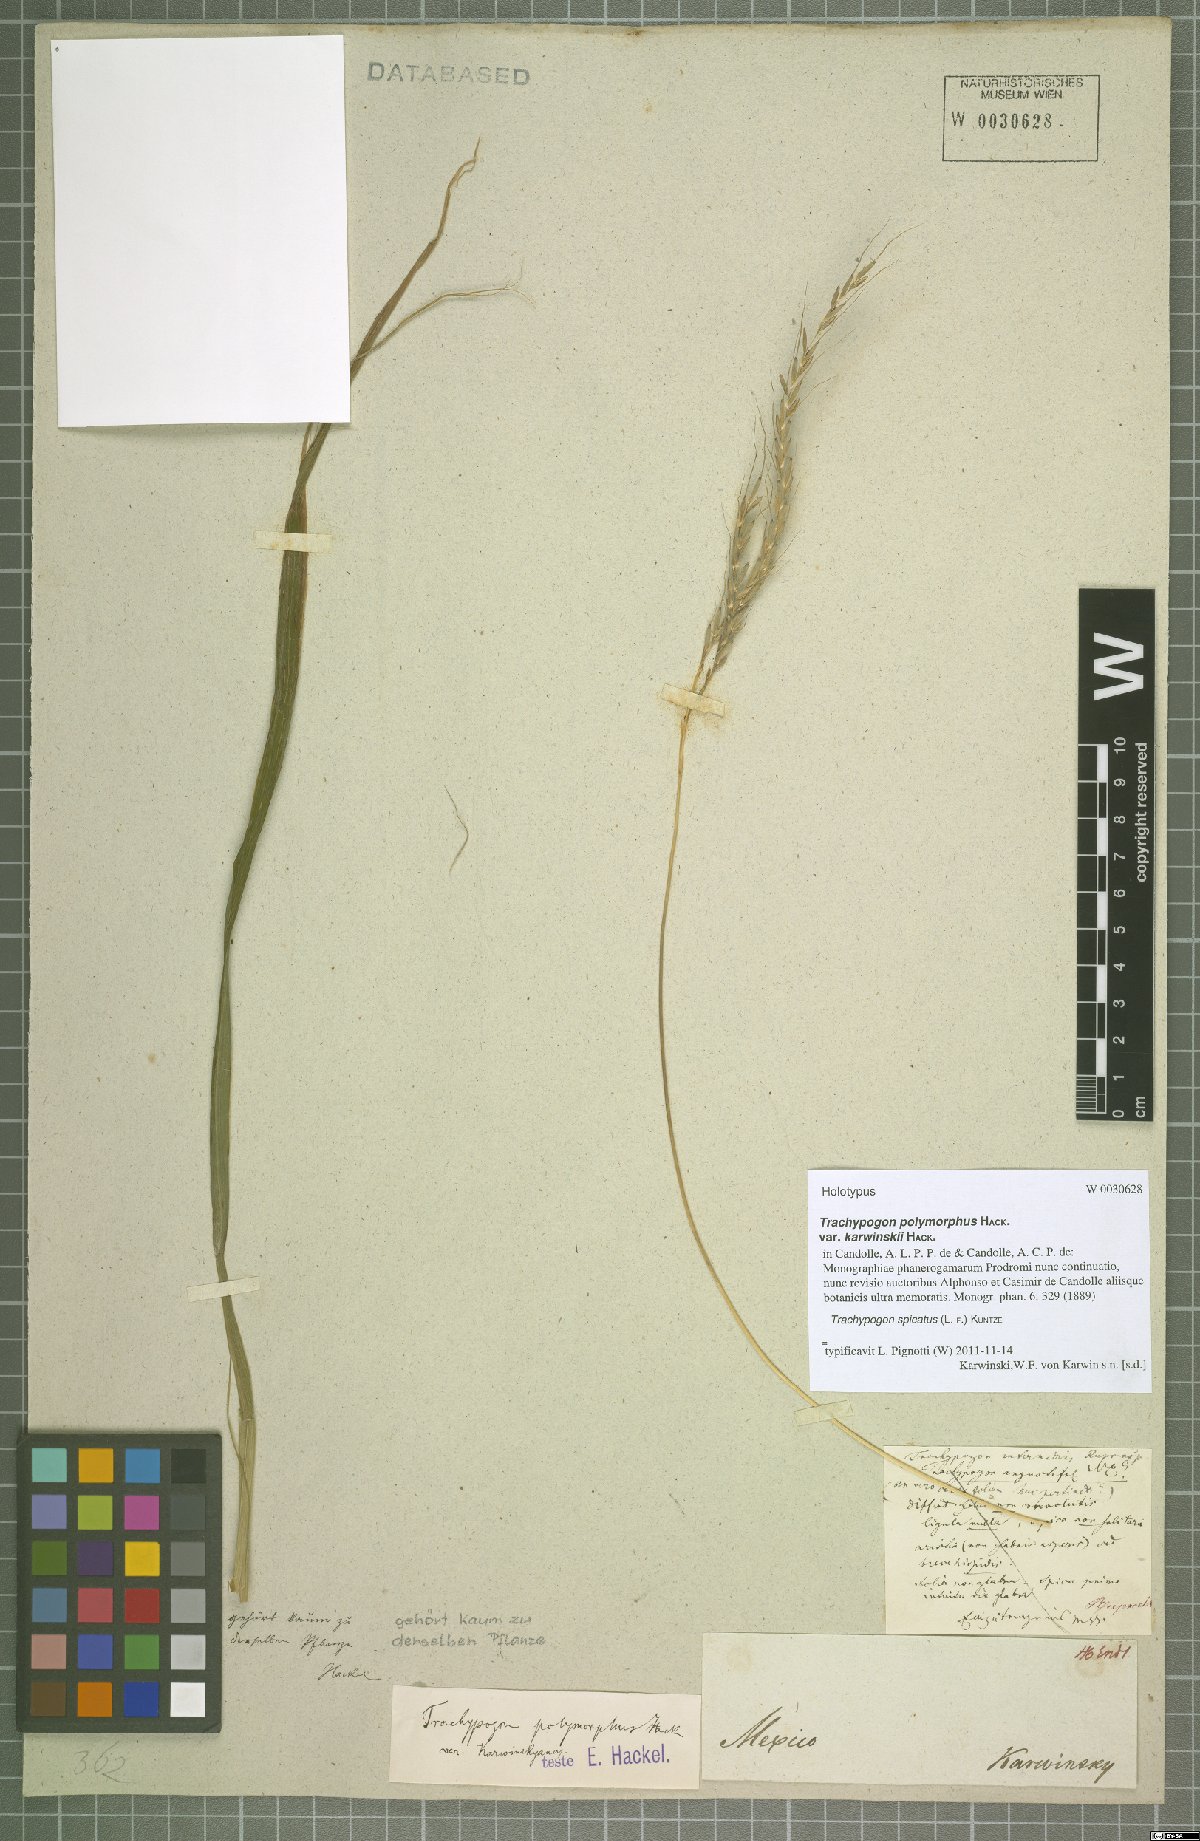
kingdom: Plantae
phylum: Tracheophyta
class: Liliopsida
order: Poales
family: Poaceae
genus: Trachypogon
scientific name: Trachypogon spicatus
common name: Crinkle-awn
